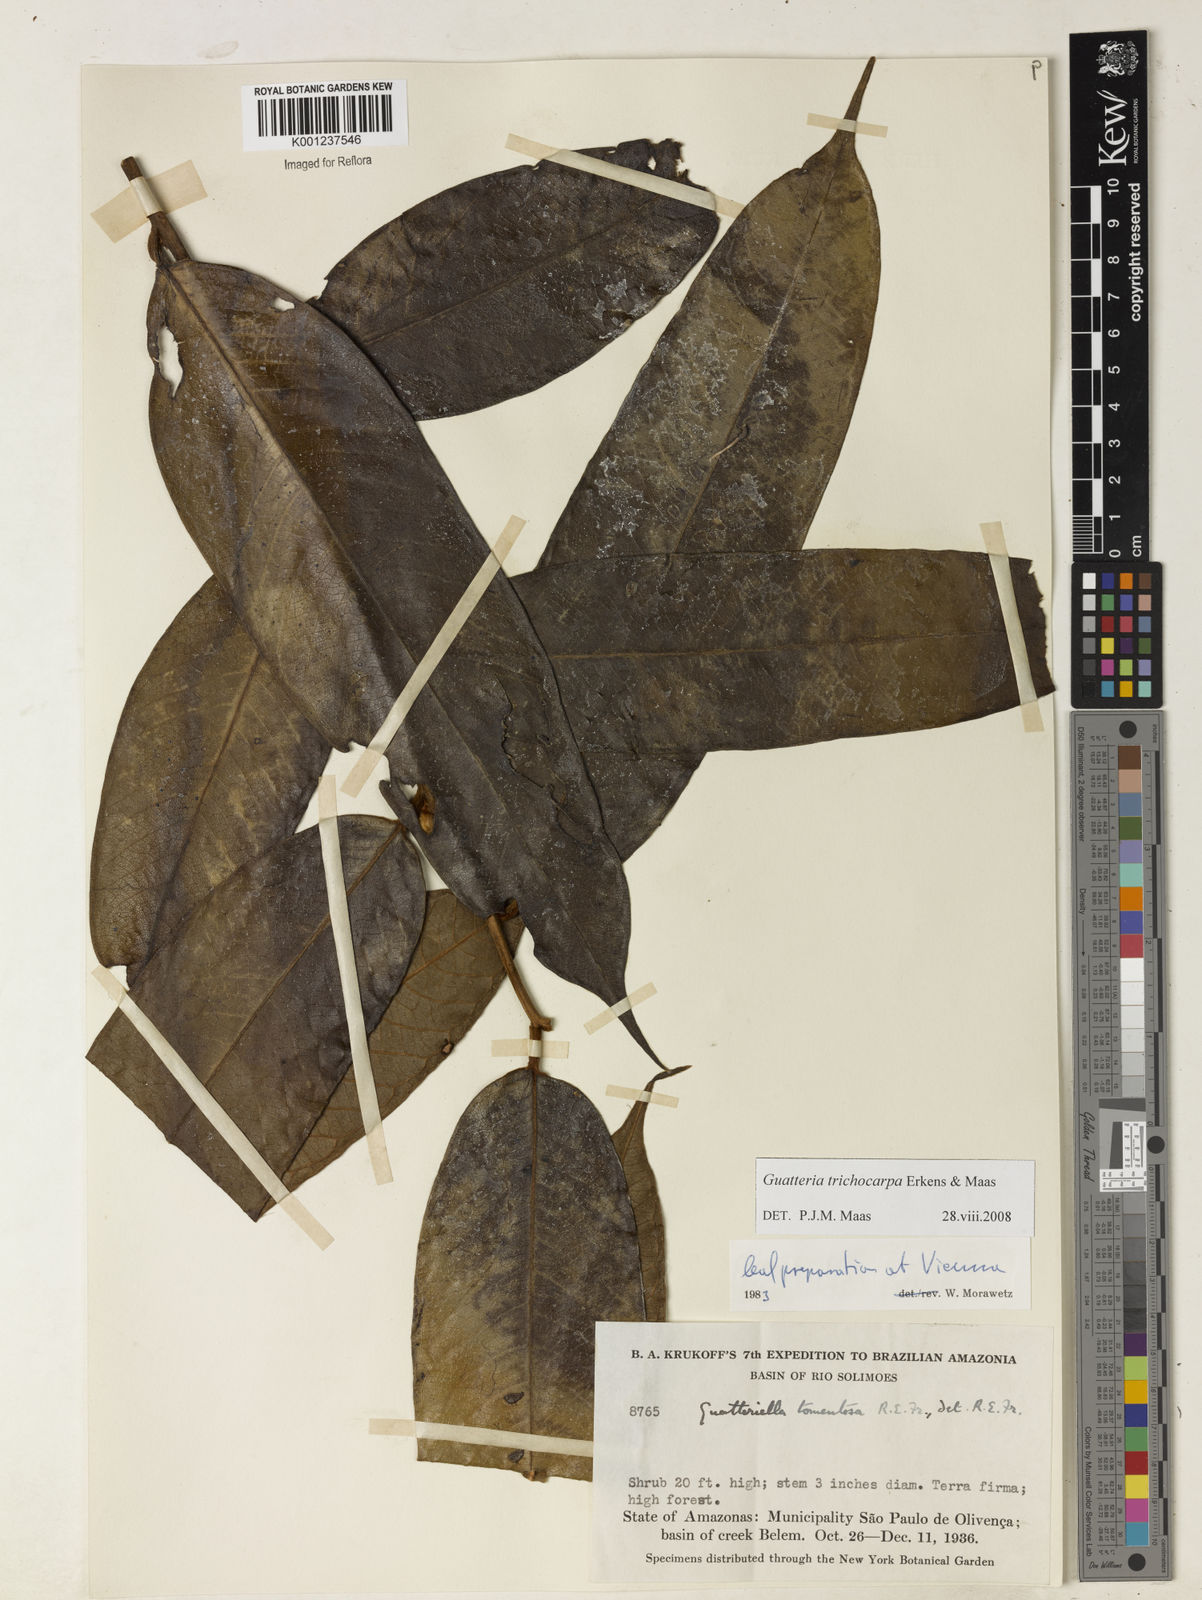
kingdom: Plantae
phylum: Tracheophyta
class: Magnoliopsida
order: Magnoliales
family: Annonaceae
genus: Guatteria
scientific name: Guatteria trichocarpa
